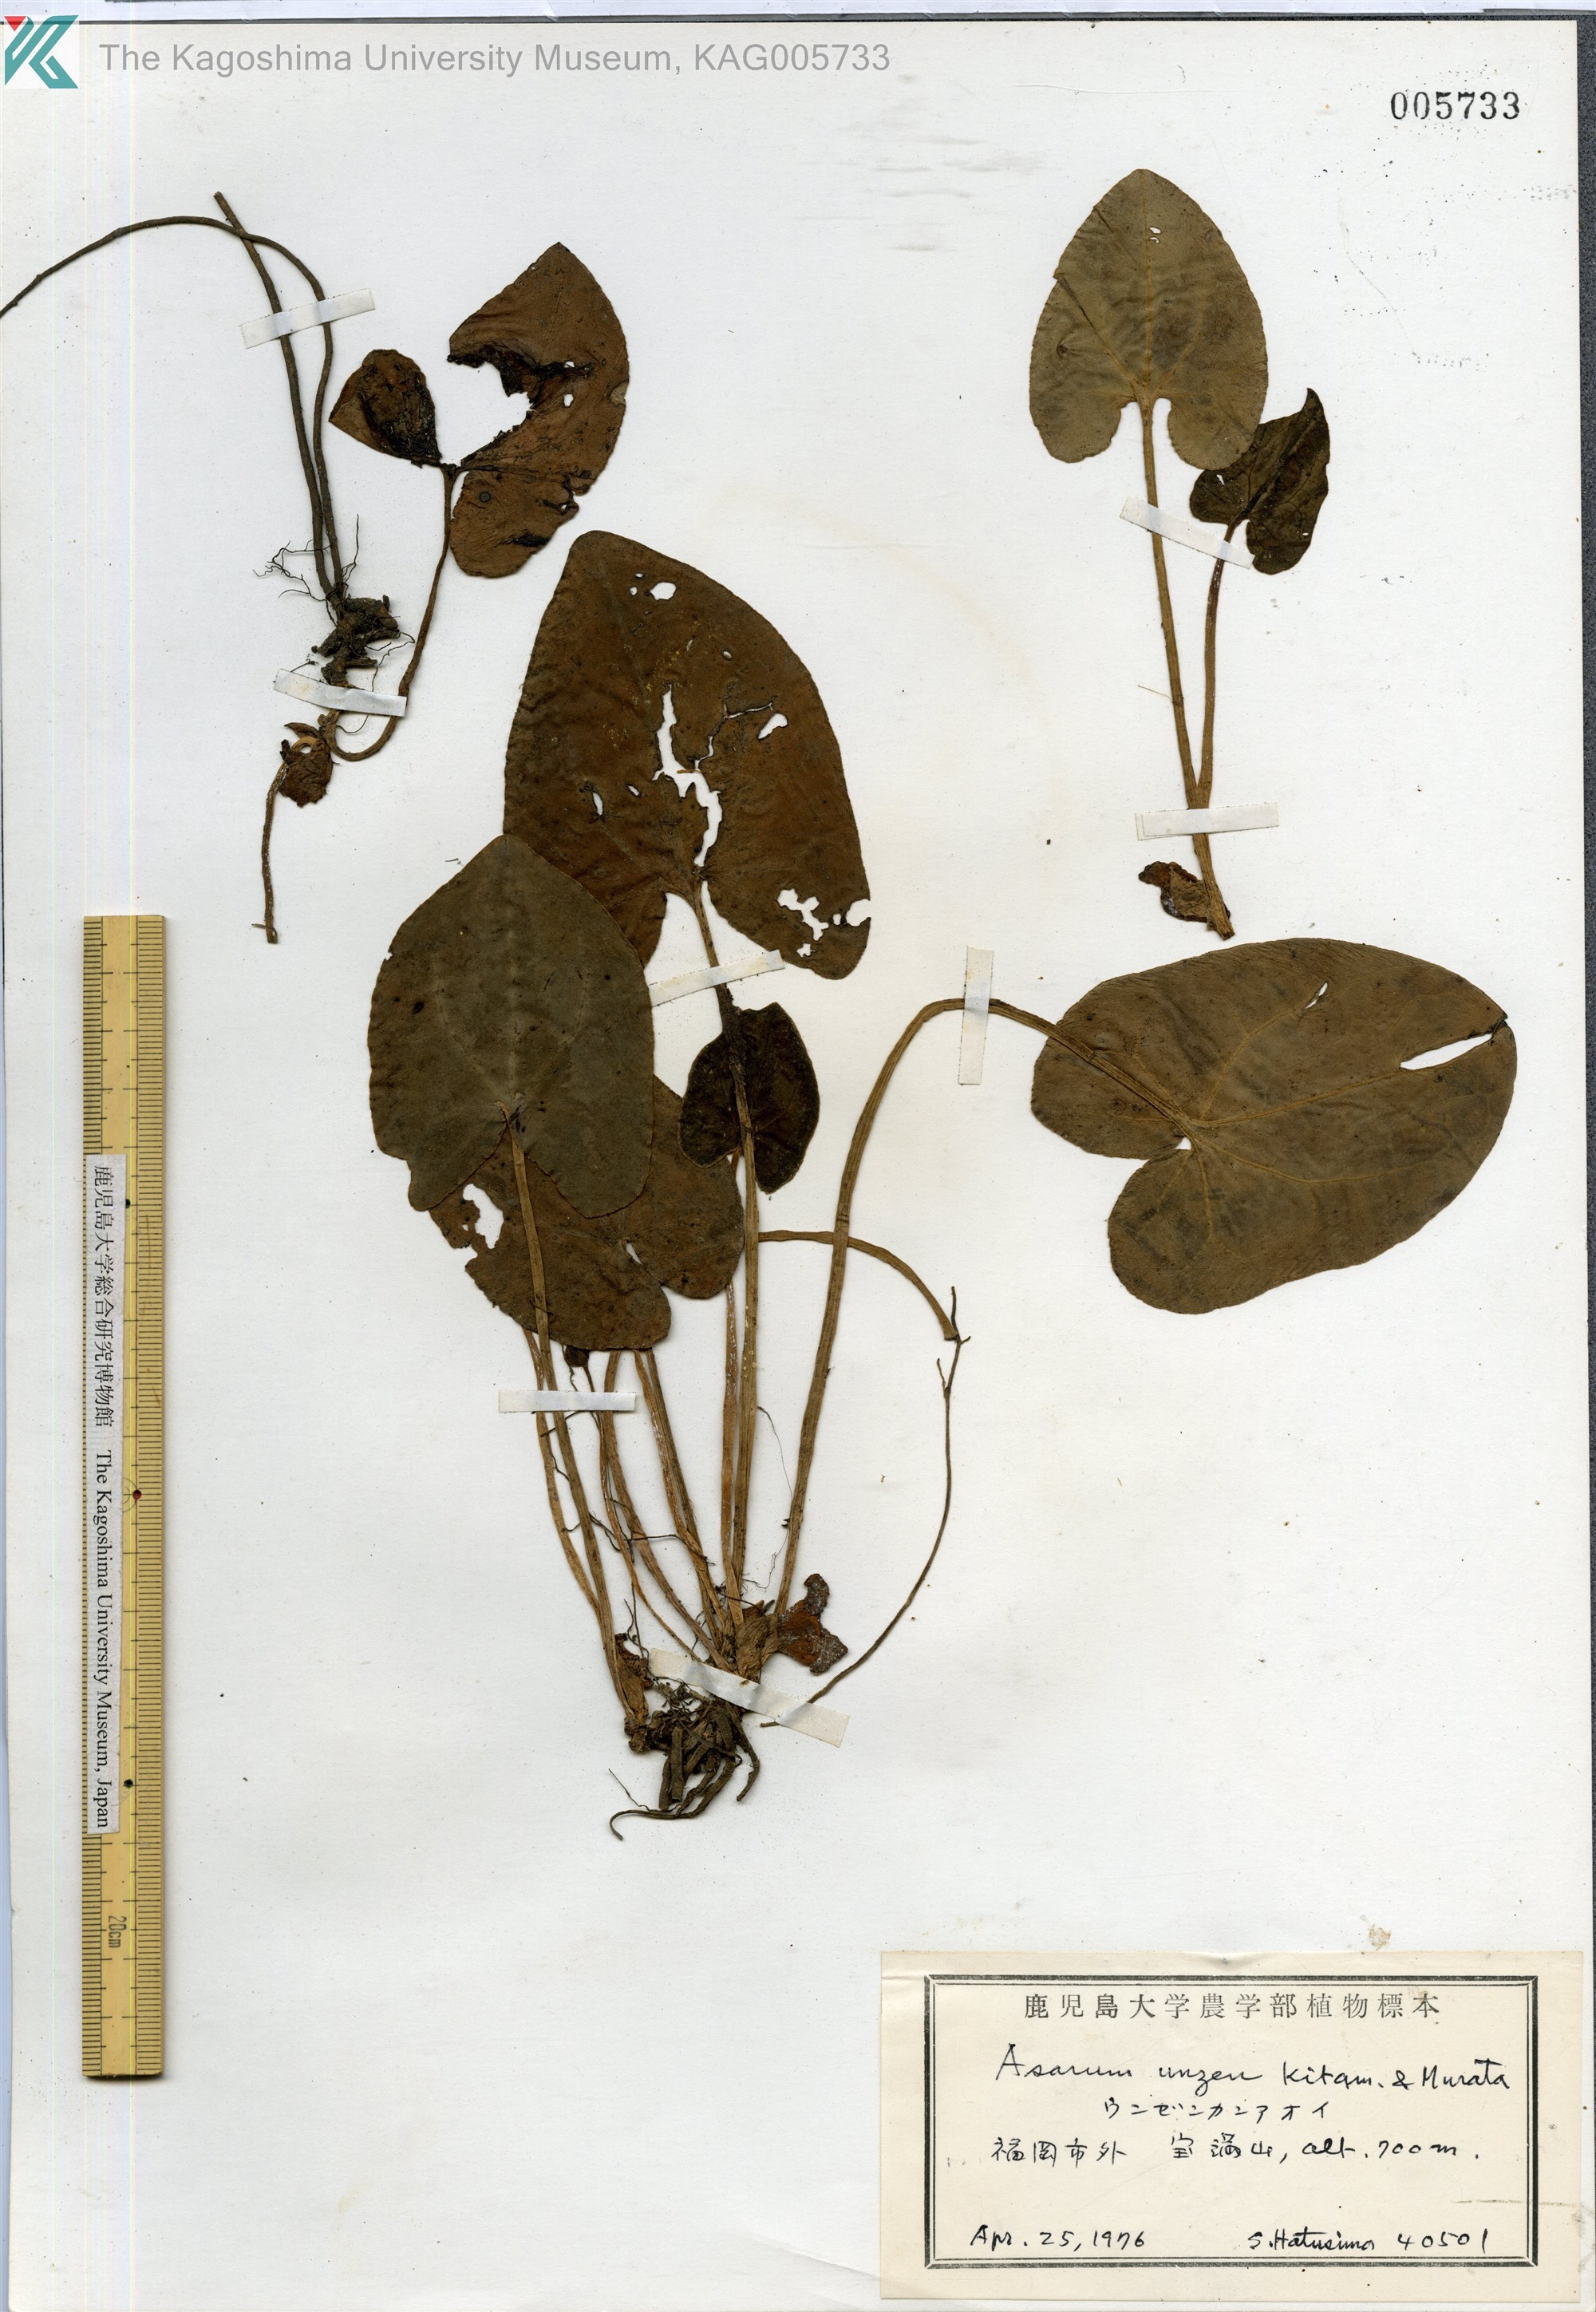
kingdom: Plantae
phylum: Tracheophyta
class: Magnoliopsida
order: Piperales
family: Aristolochiaceae
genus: Asarum
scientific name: Asarum unzen
